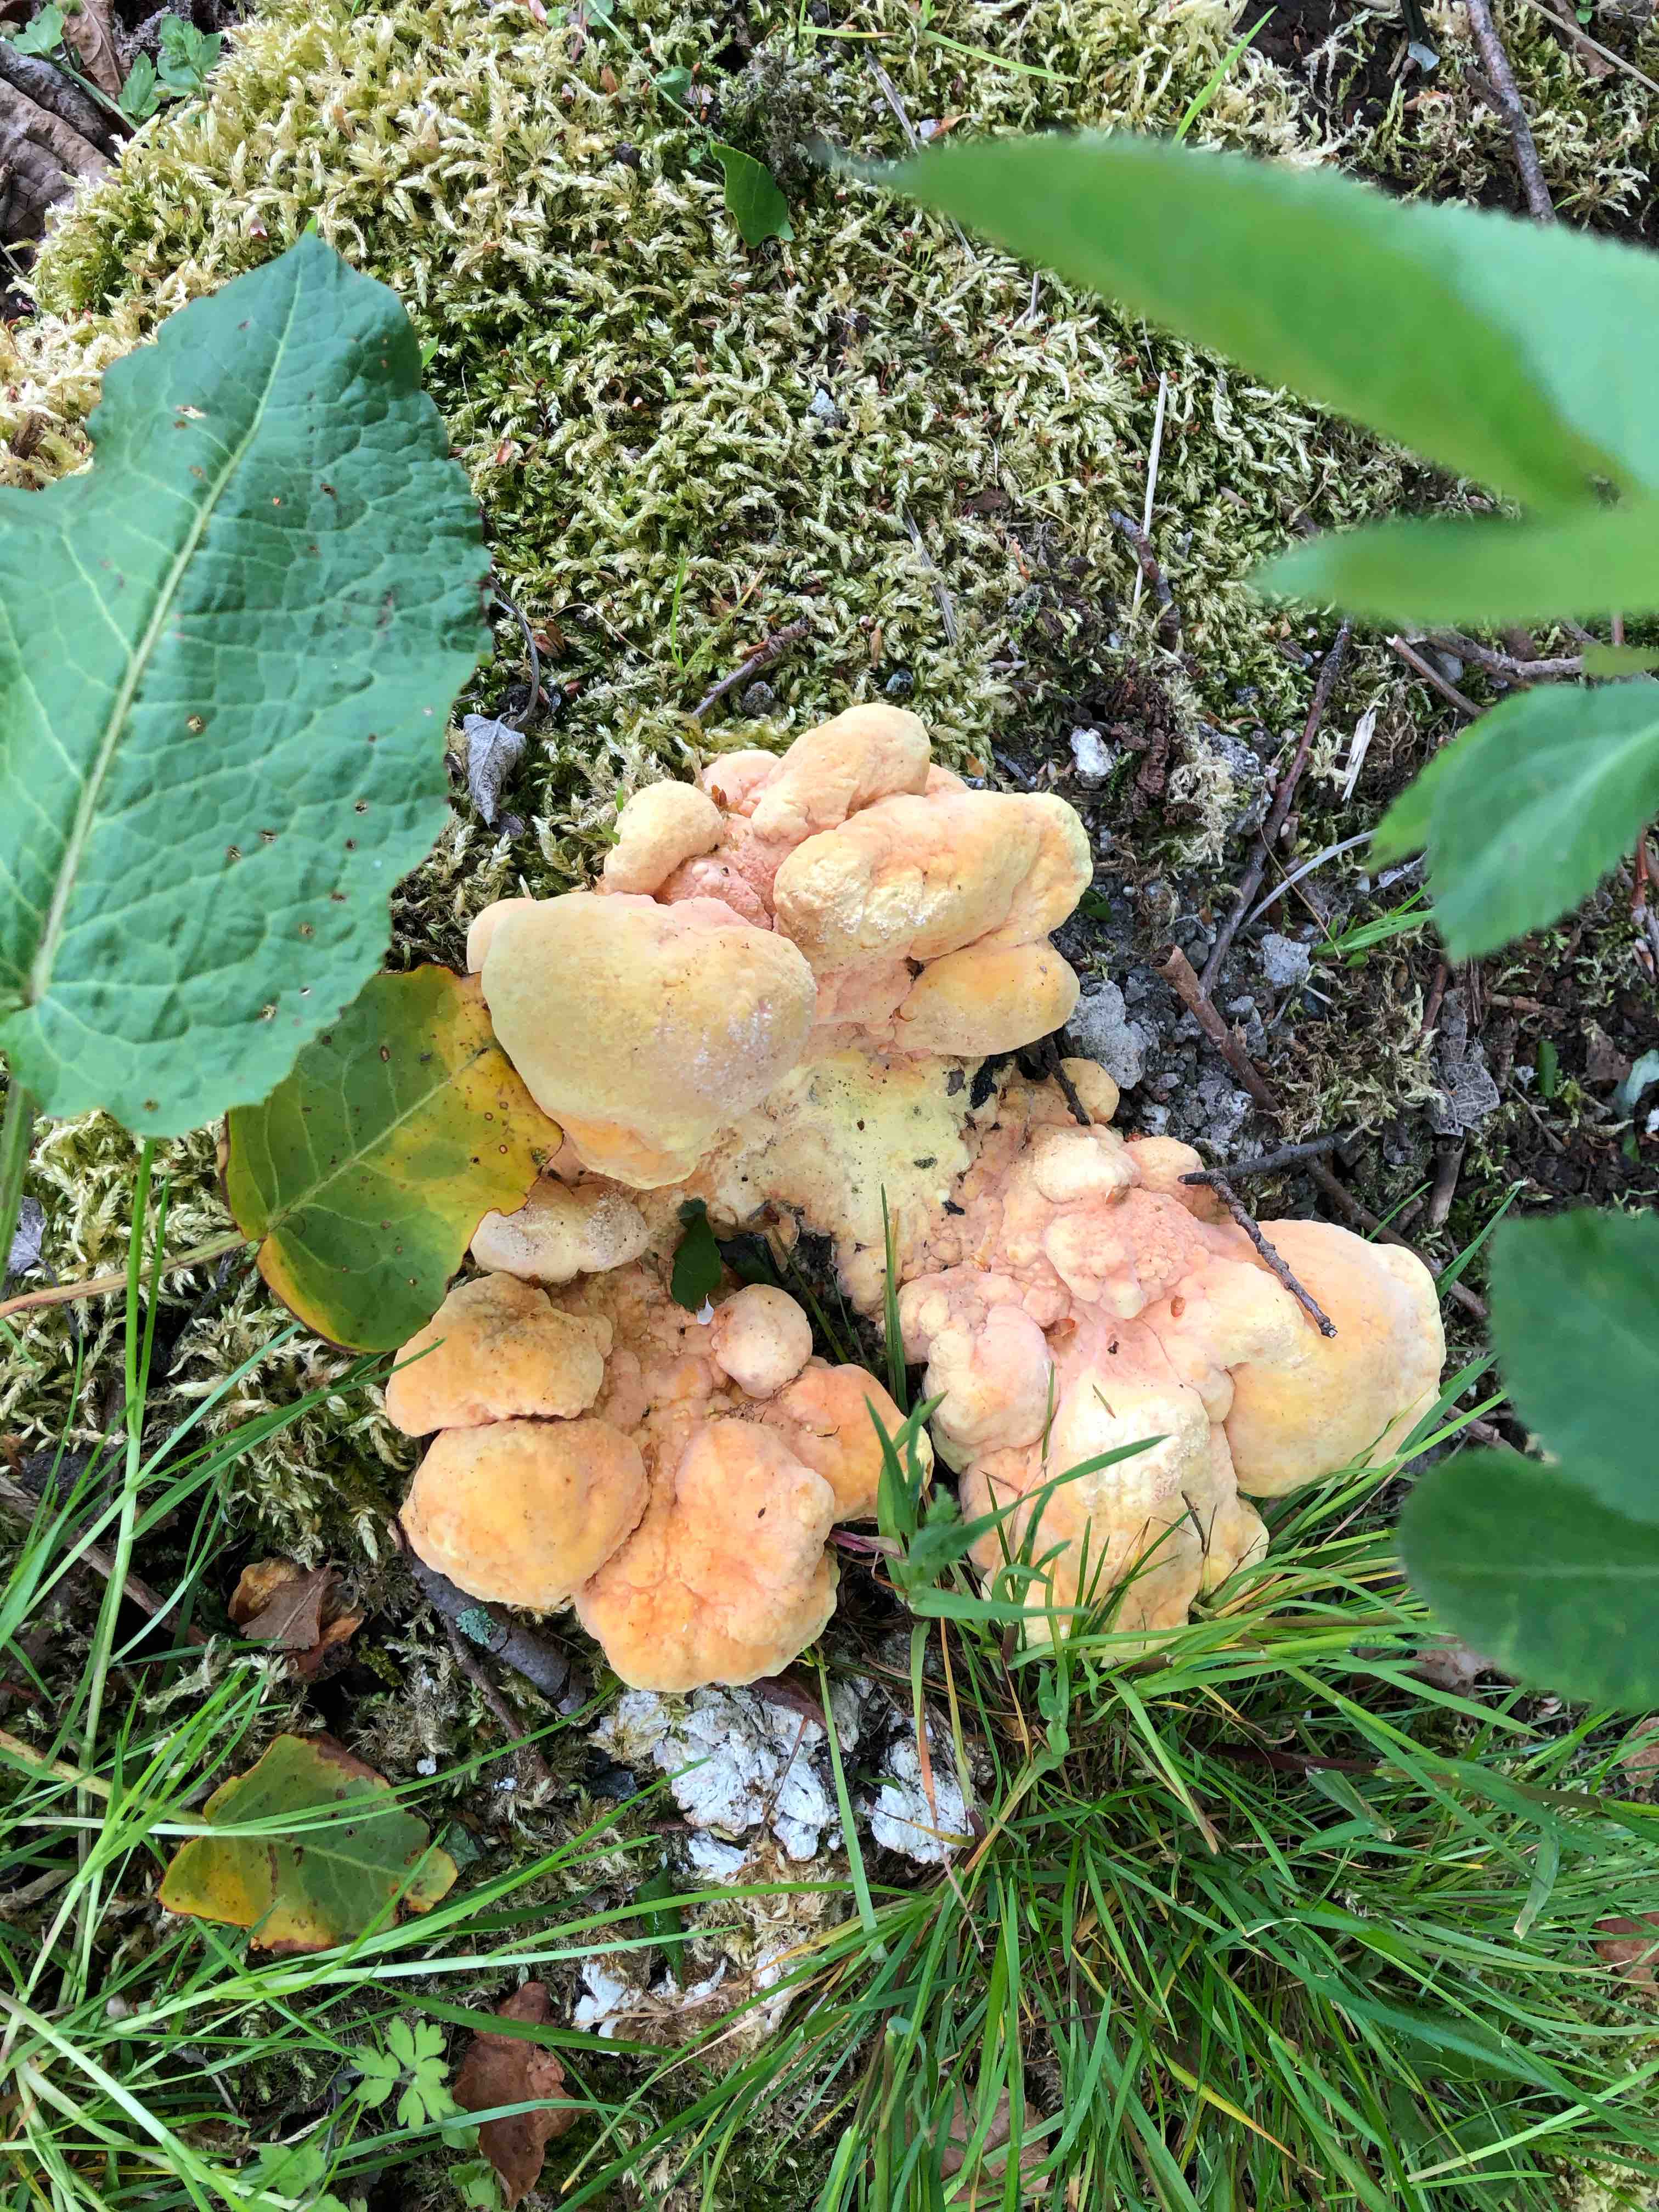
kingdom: Fungi
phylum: Basidiomycota
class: Agaricomycetes
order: Polyporales
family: Laetiporaceae
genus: Laetiporus
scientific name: Laetiporus sulphureus
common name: svovlporesvamp
